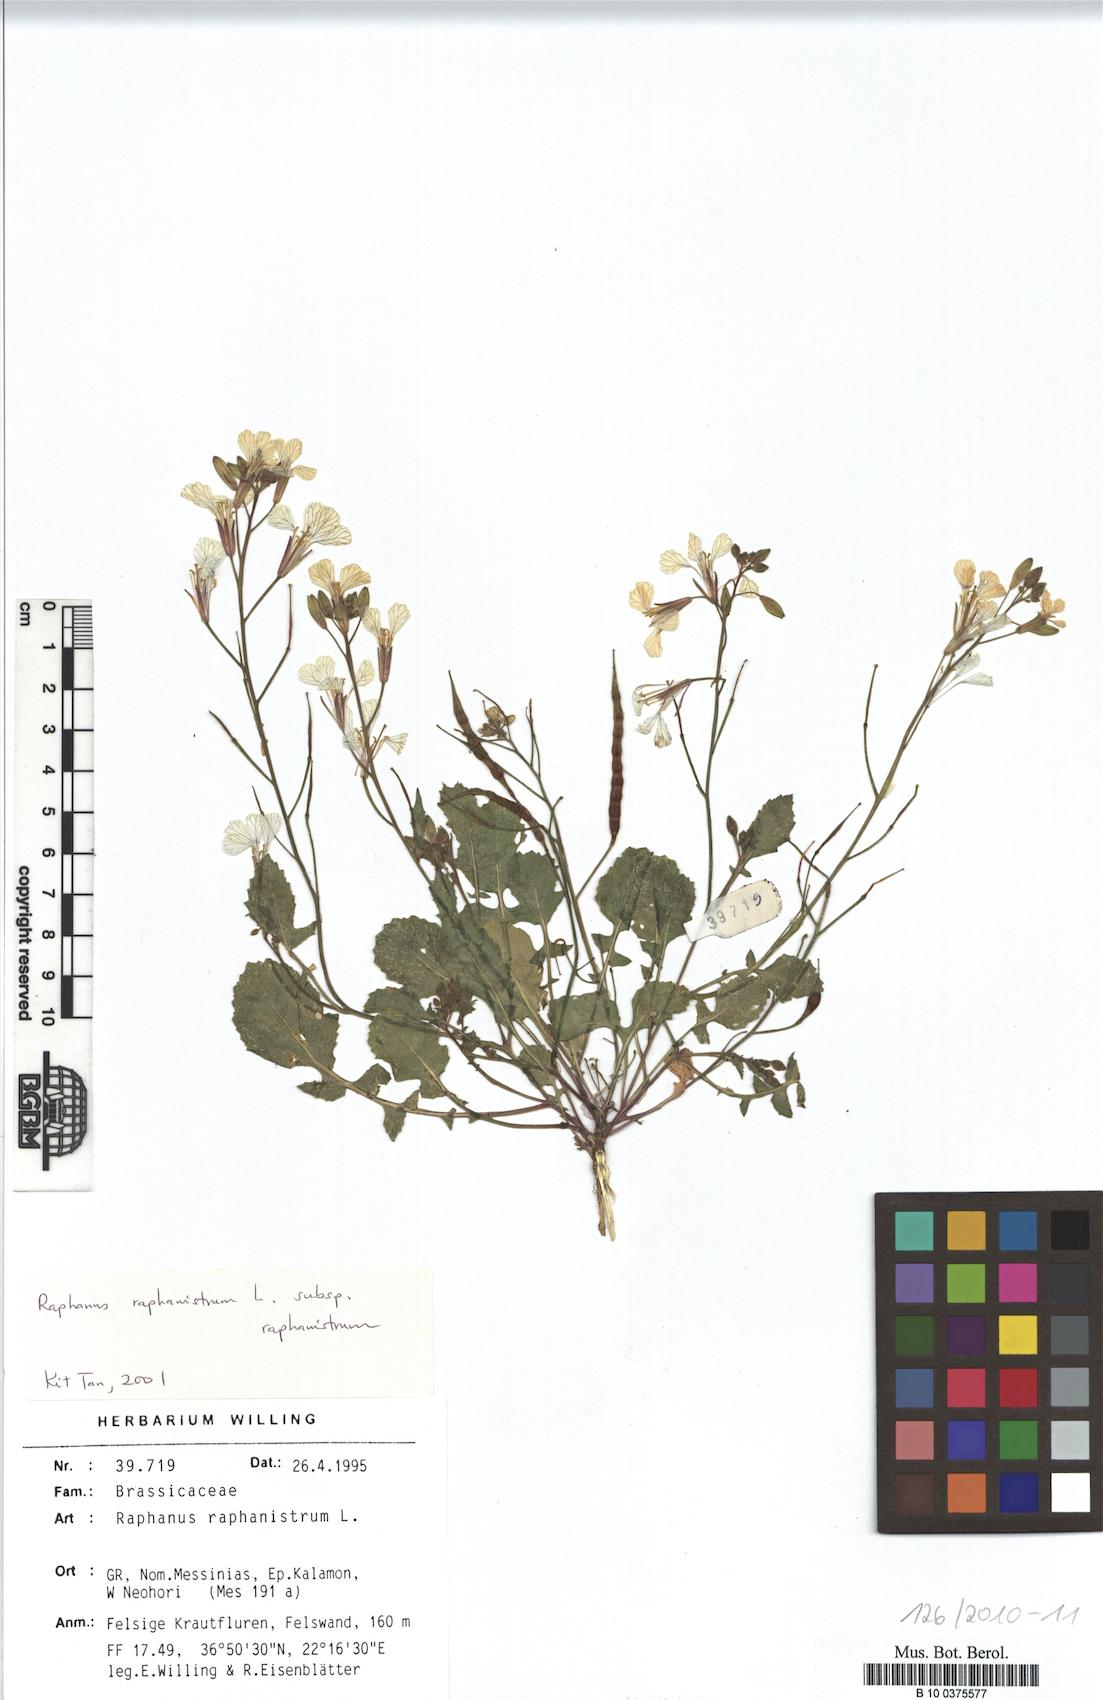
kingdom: Plantae
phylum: Tracheophyta
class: Magnoliopsida
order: Brassicales
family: Brassicaceae
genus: Raphanus
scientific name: Raphanus raphanistrum
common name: Wild radish
